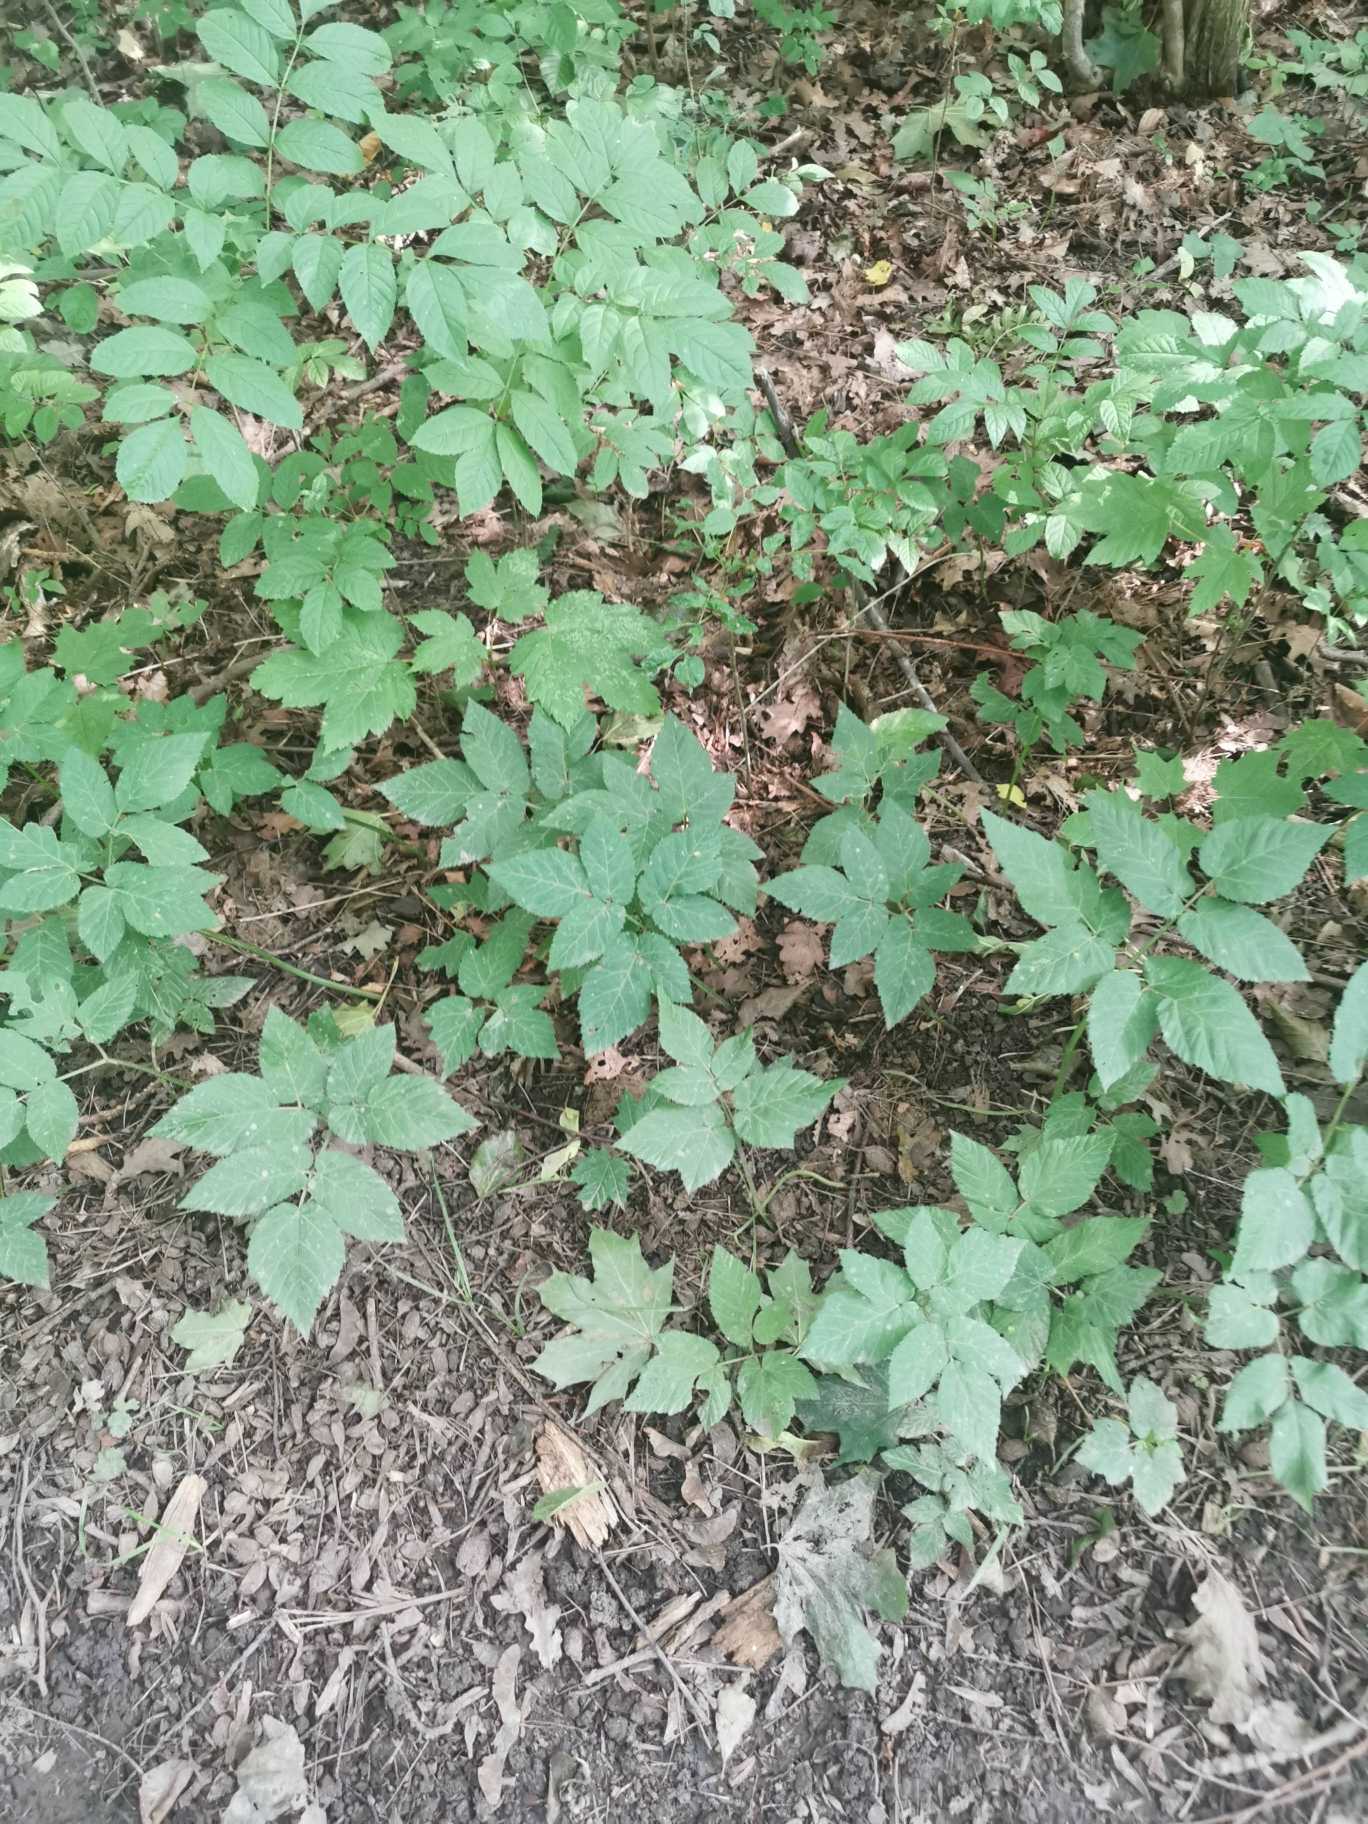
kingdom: Plantae
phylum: Tracheophyta
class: Magnoliopsida
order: Apiales
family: Apiaceae
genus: Aegopodium
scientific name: Aegopodium podagraria
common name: Skvalderkål
